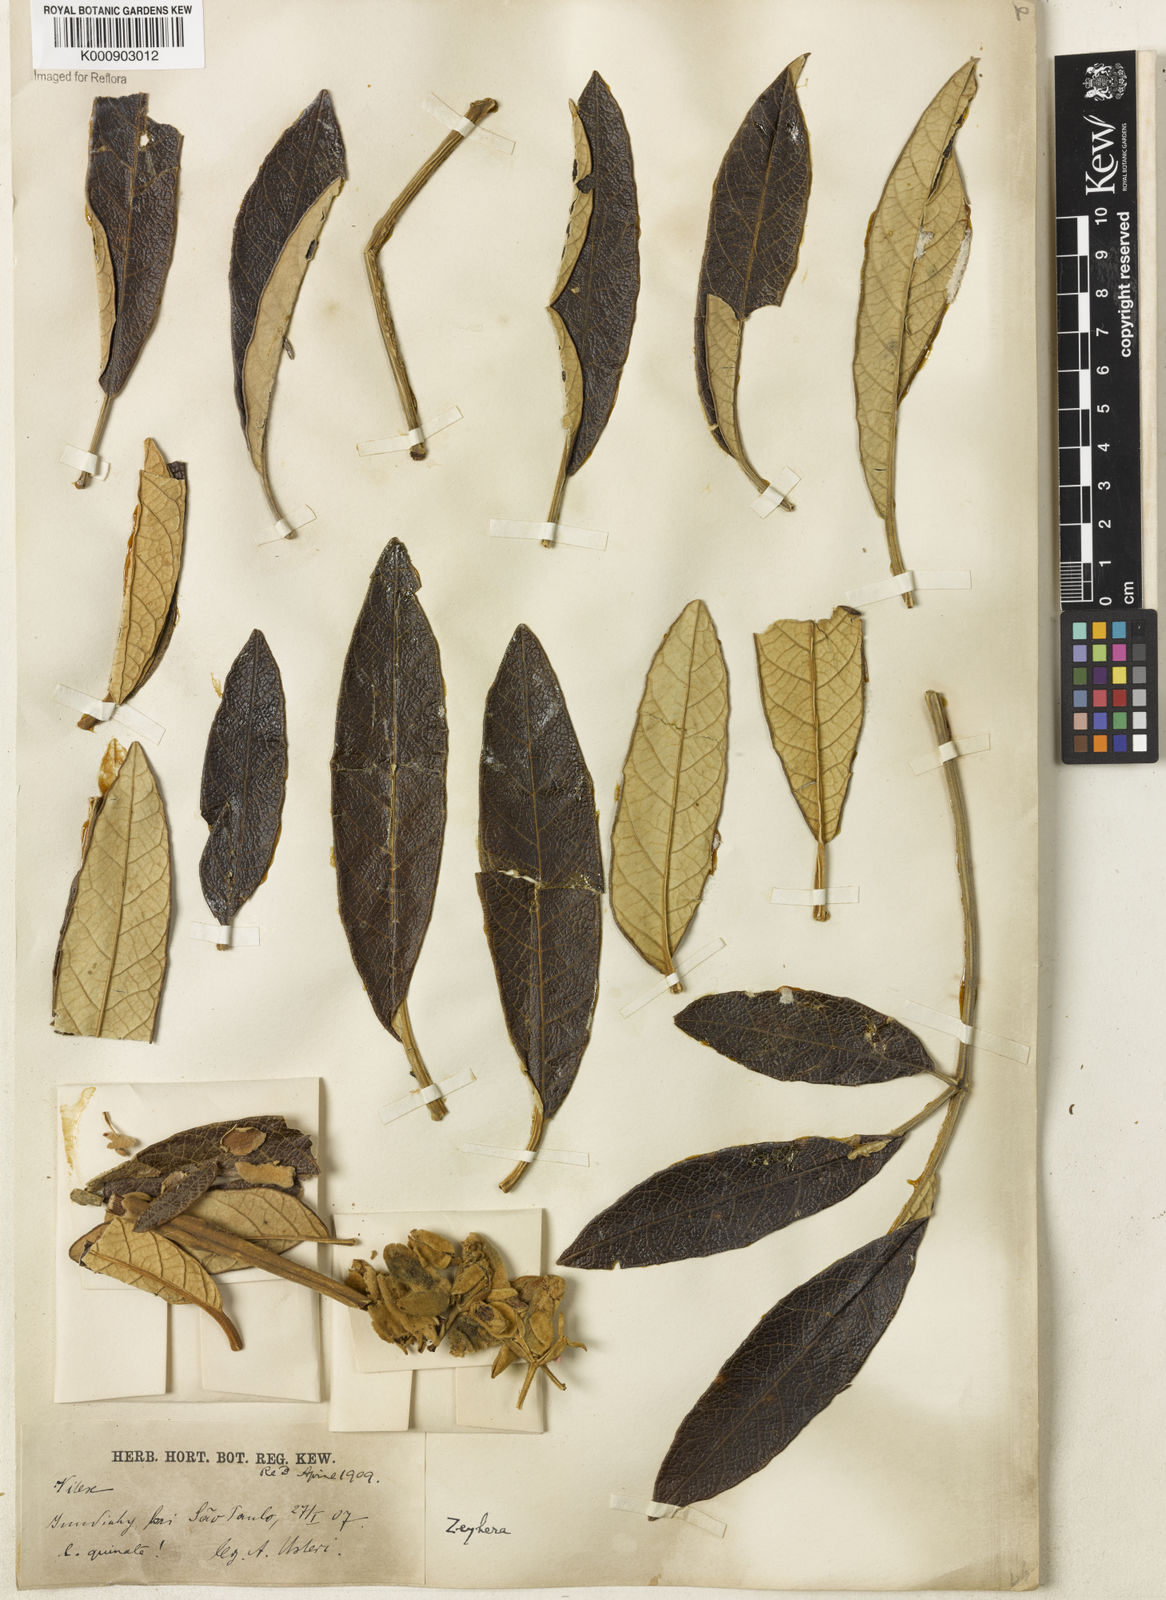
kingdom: Plantae
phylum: Tracheophyta
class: Magnoliopsida
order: Lamiales
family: Bignoniaceae
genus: Zeyheria
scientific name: Zeyheria montana
